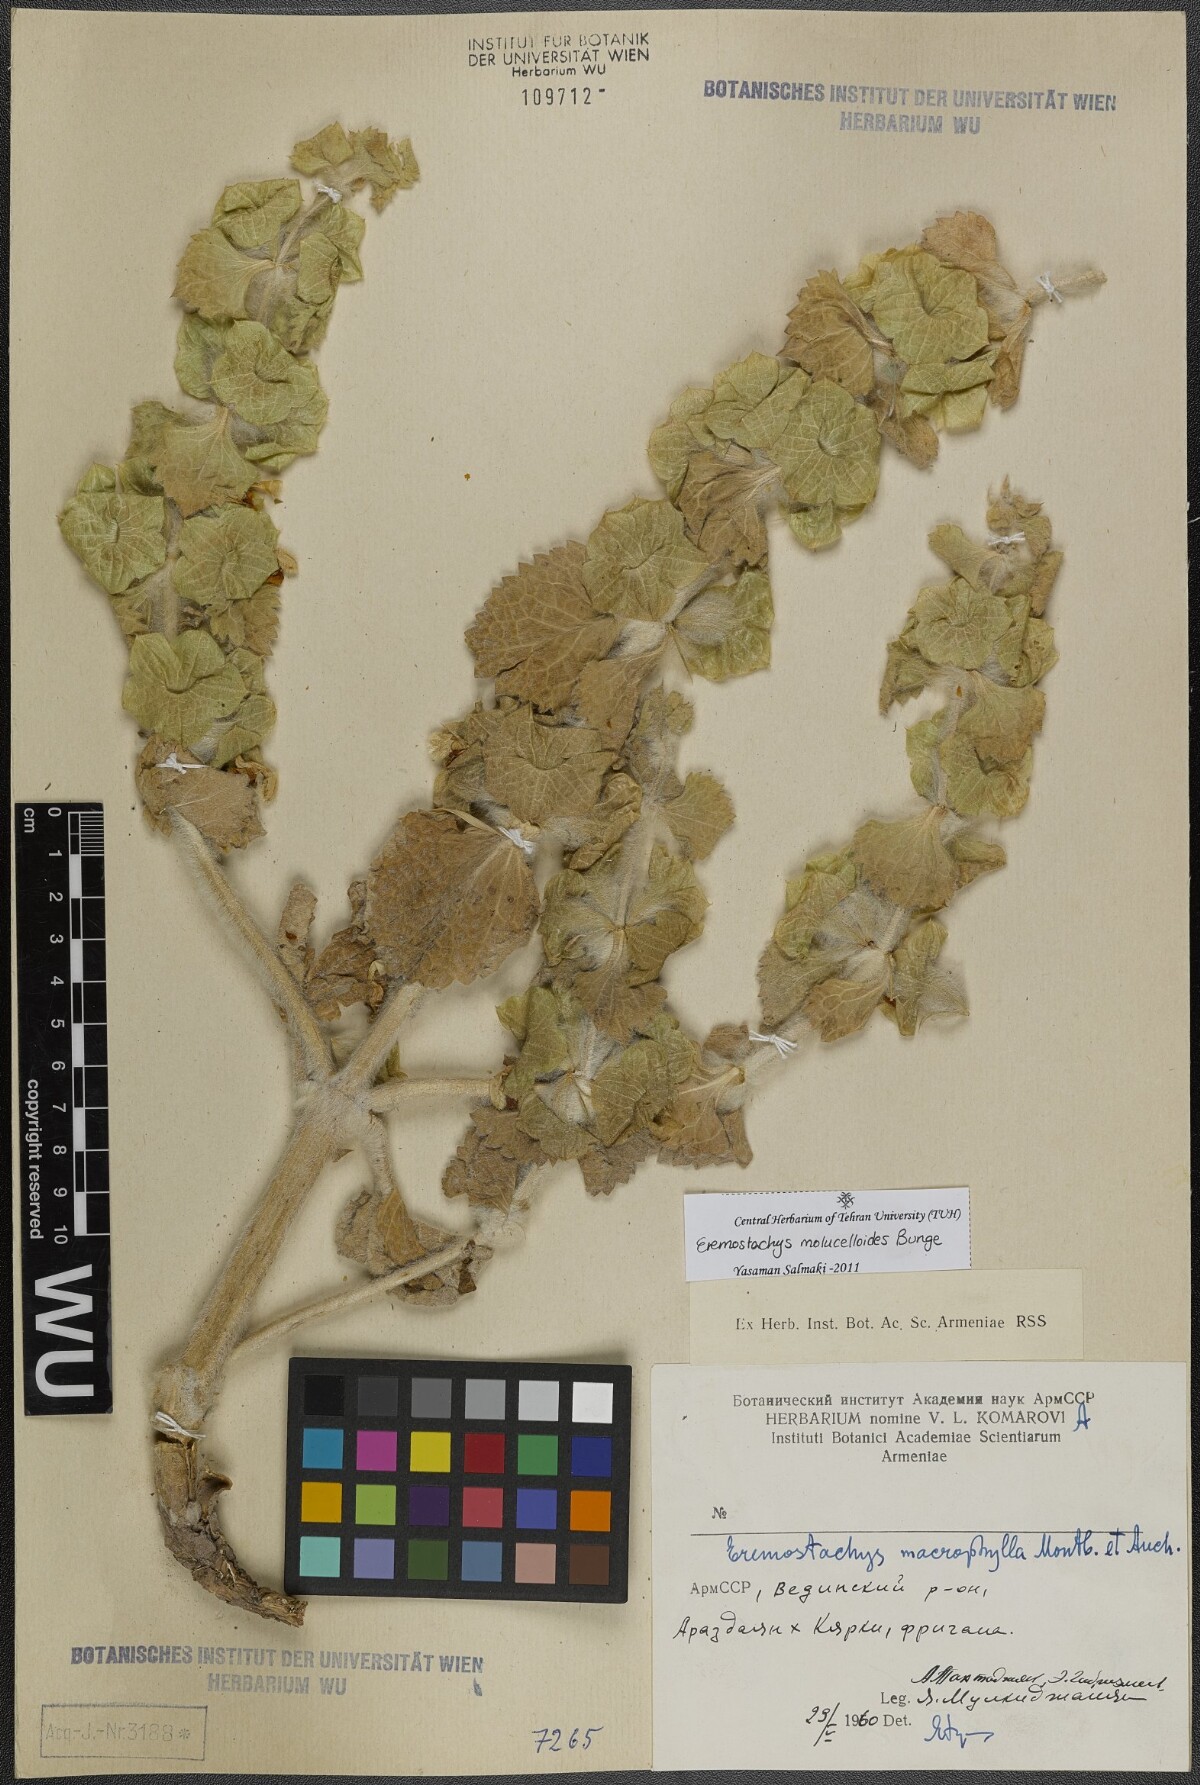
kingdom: Plantae
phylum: Tracheophyta
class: Magnoliopsida
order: Lamiales
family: Lamiaceae
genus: Phlomoides
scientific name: Phlomoides molucelloides
